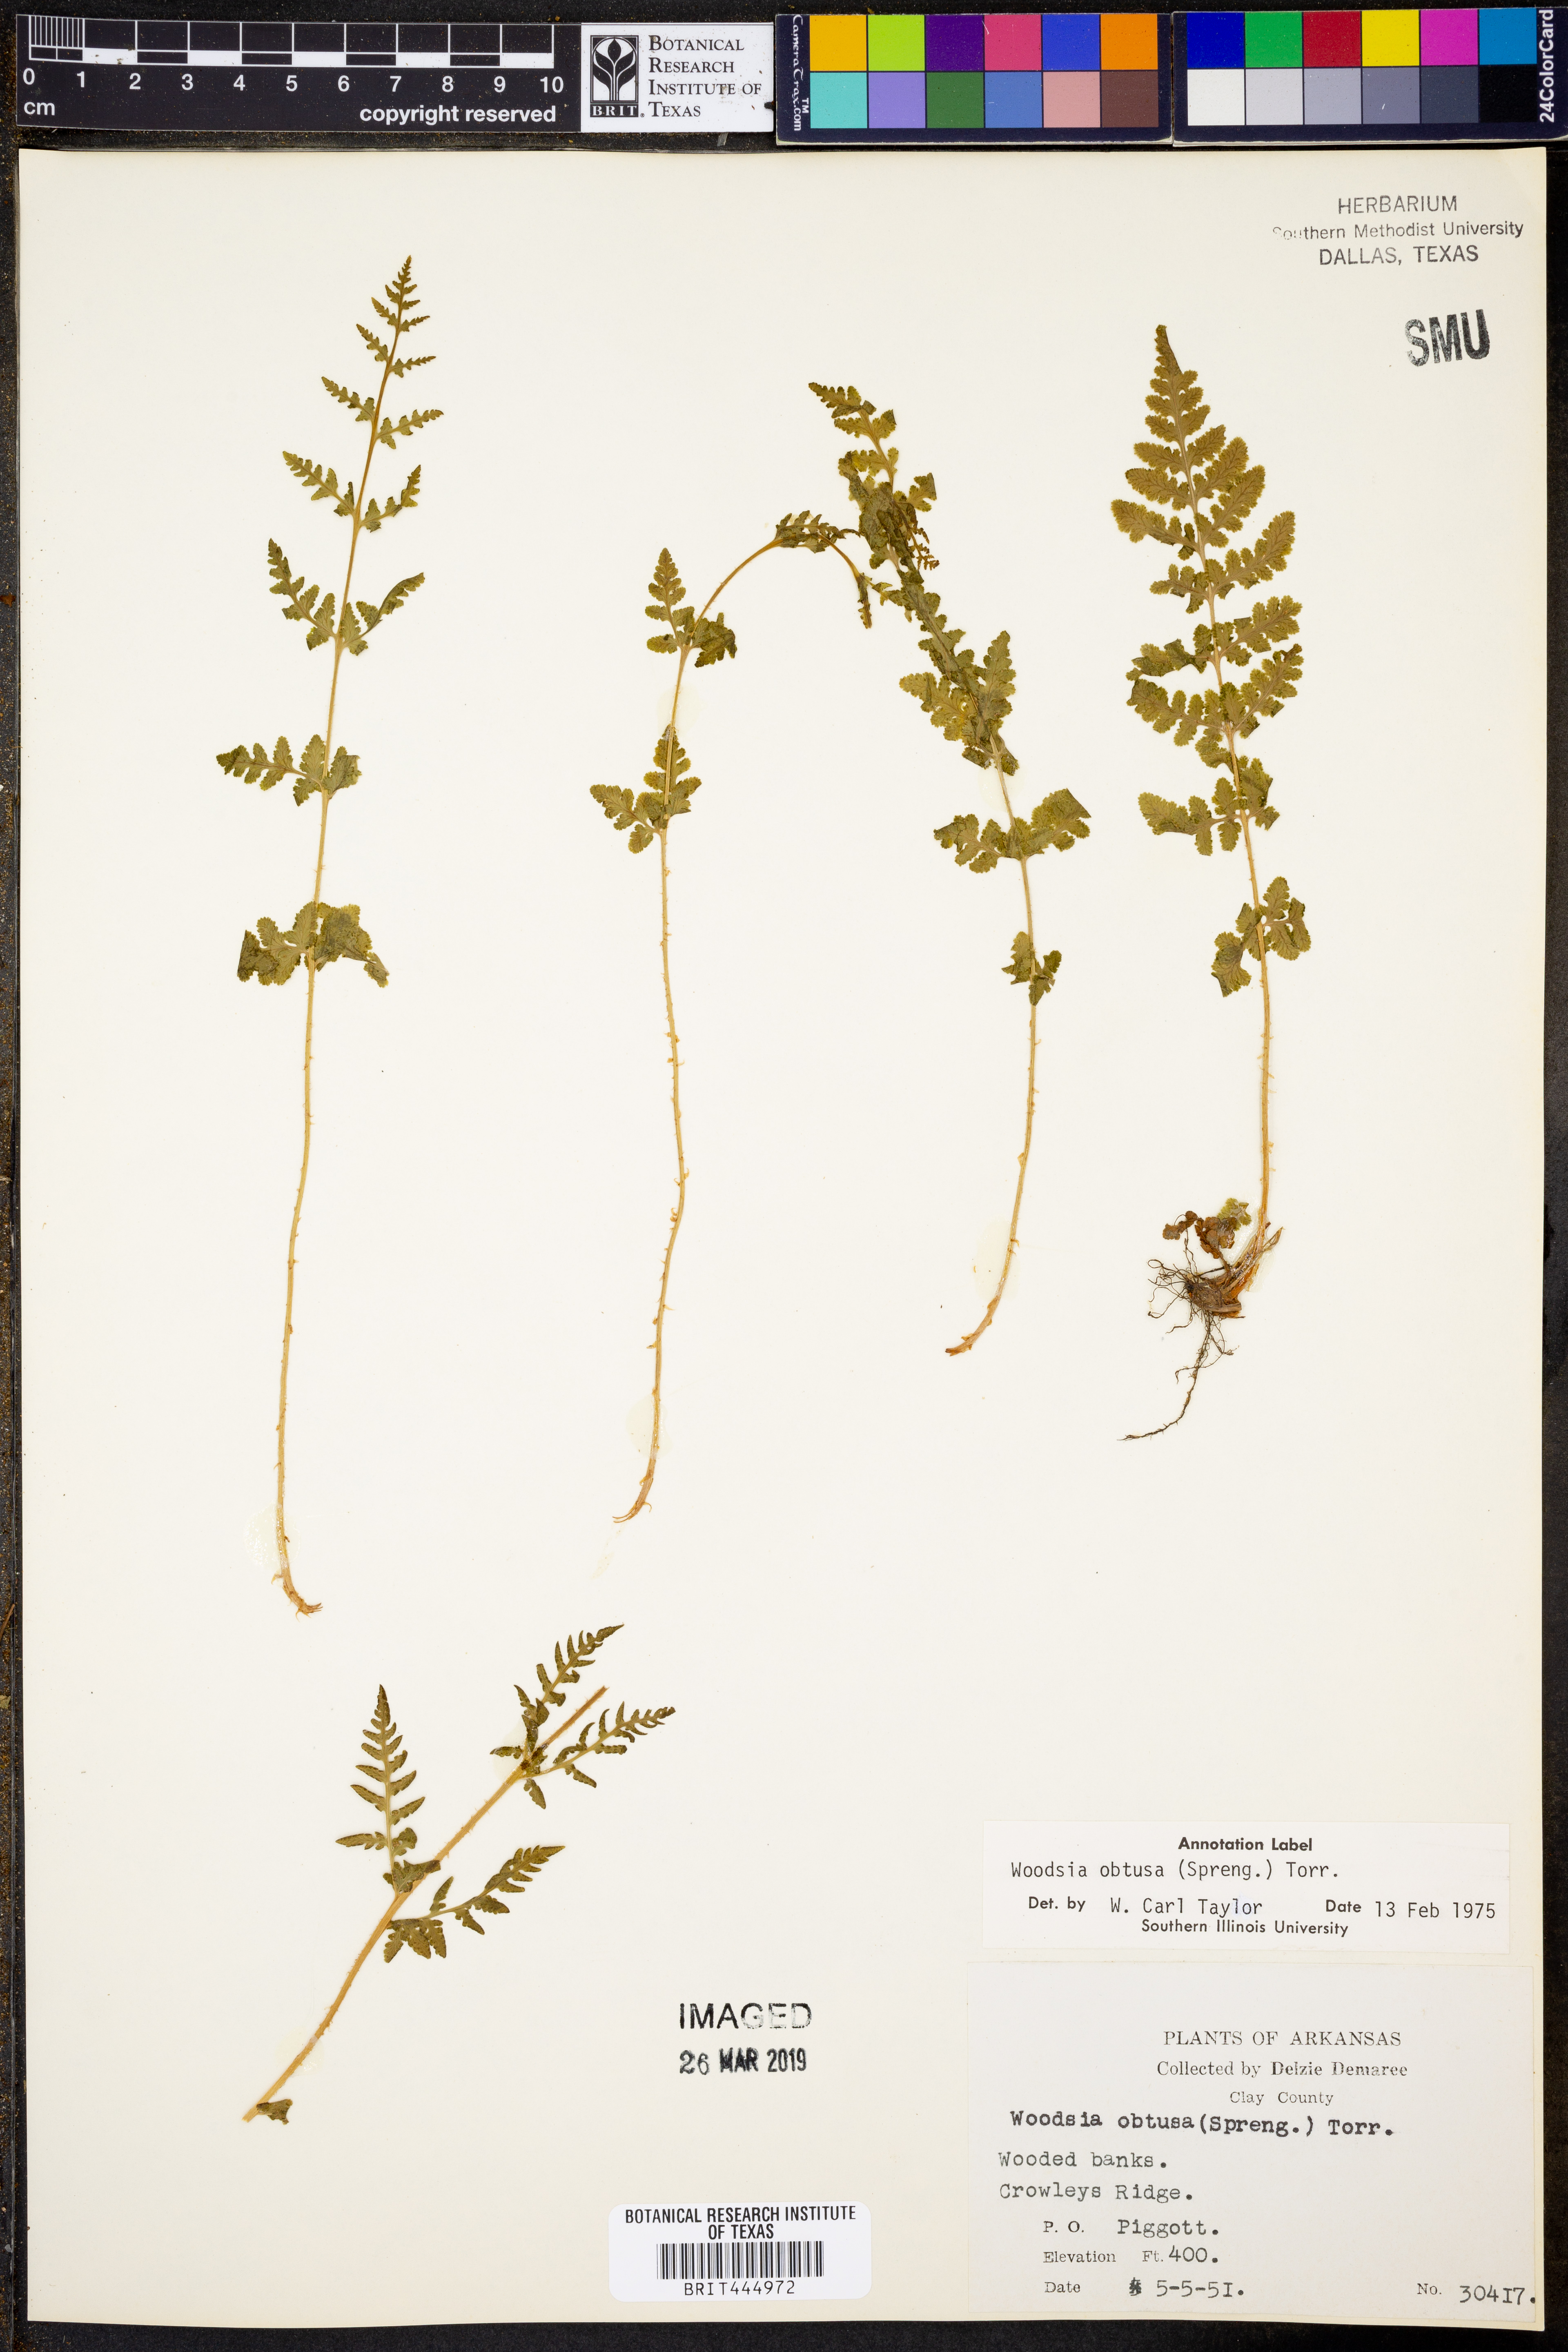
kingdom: Plantae
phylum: Tracheophyta
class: Polypodiopsida
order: Polypodiales
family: Woodsiaceae
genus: Physematium
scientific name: Physematium obtusum
